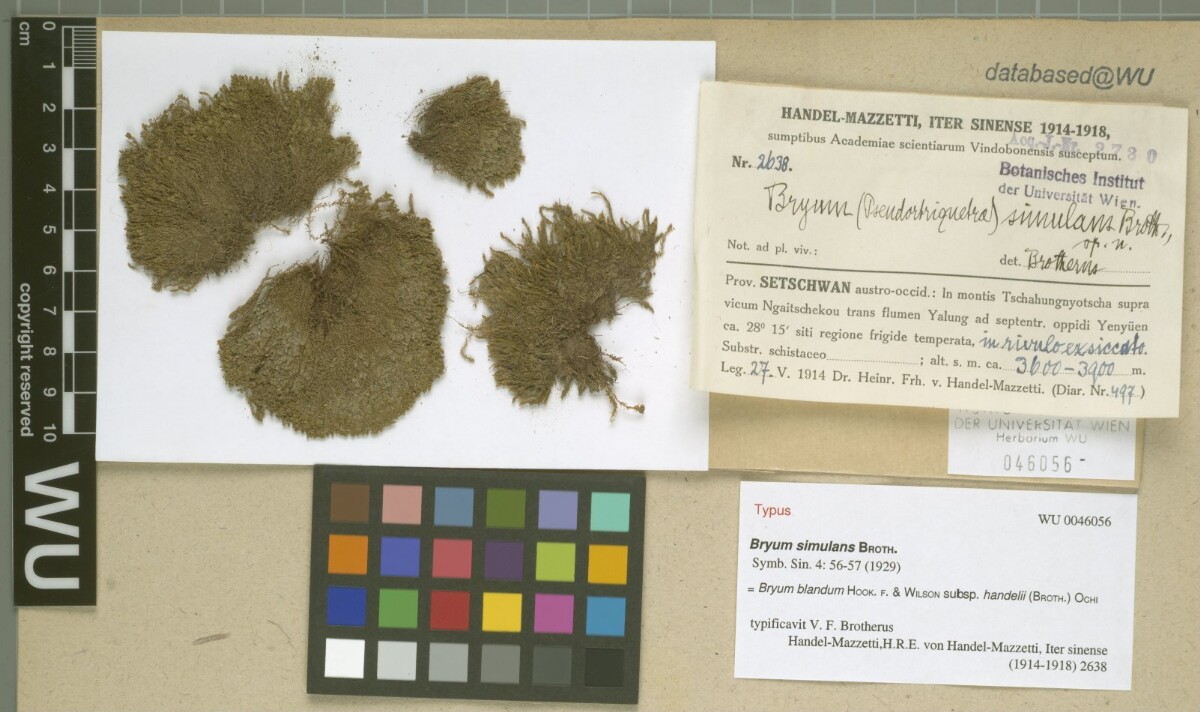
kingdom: Plantae
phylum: Bryophyta
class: Bryopsida
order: Bryales
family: Bryaceae
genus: Ochiobryum
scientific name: Ochiobryum handelii
